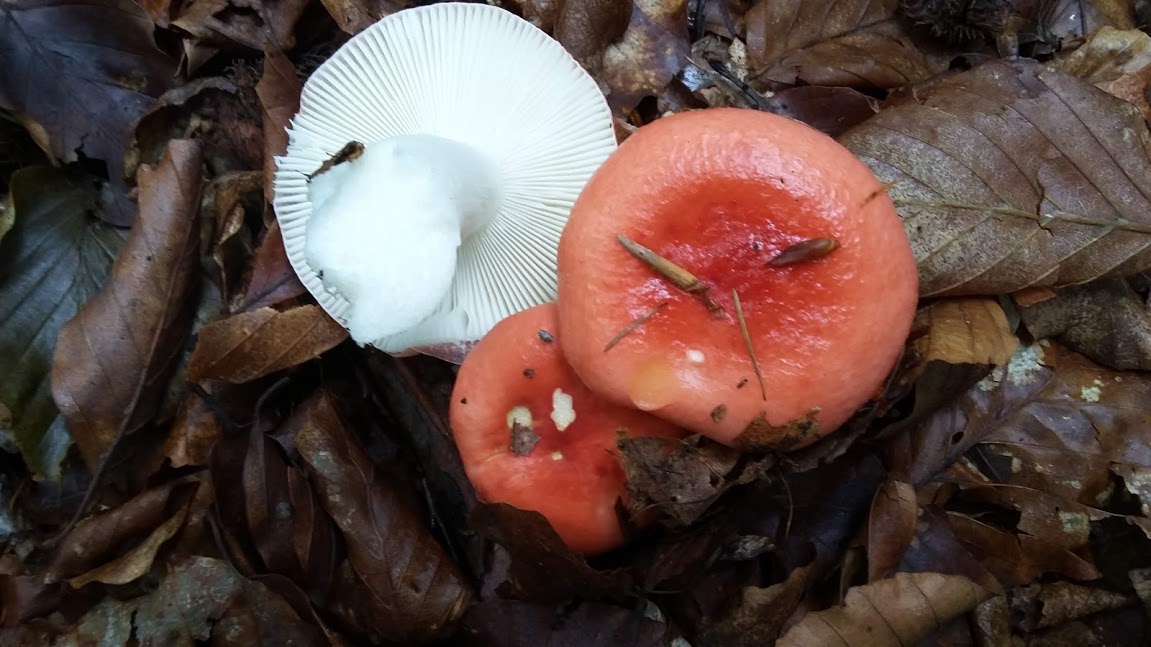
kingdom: Fungi
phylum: Basidiomycota
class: Agaricomycetes
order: Russulales
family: Russulaceae
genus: Russula
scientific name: Russula silvestris
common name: mellemstor gift-skørhat
